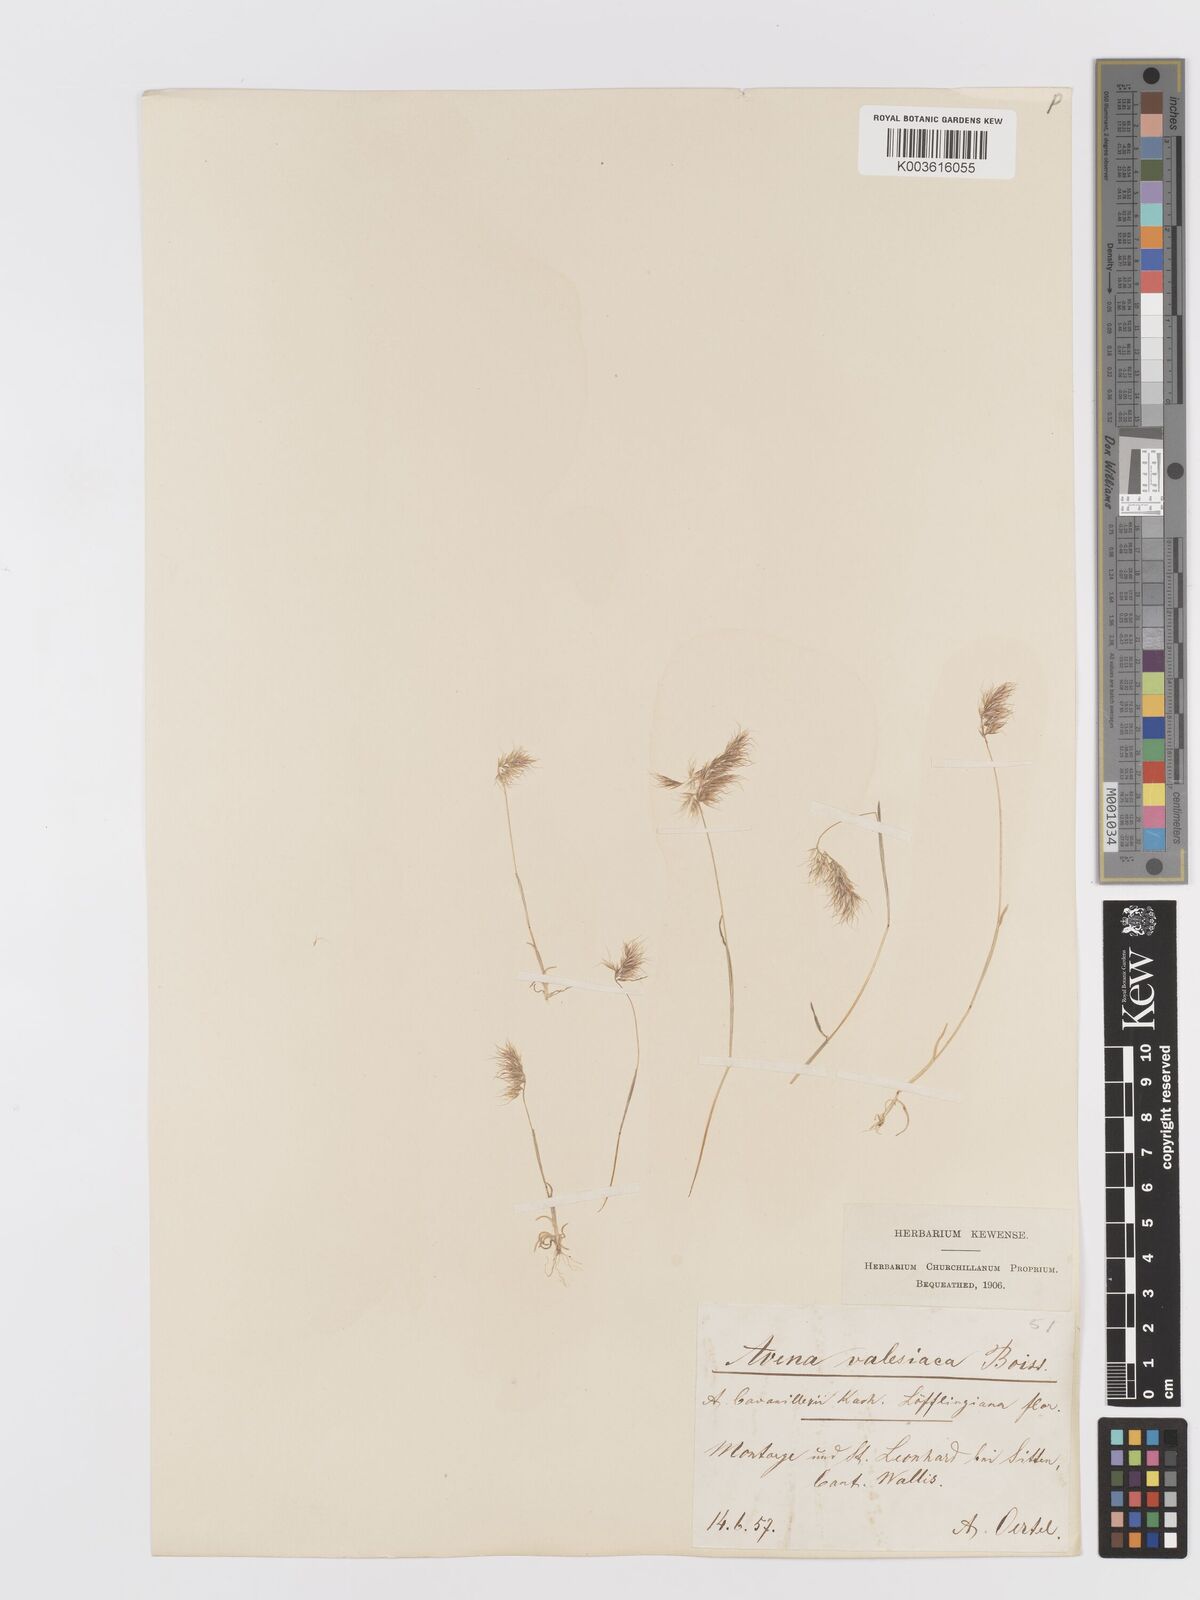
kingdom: Plantae
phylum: Tracheophyta
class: Liliopsida
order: Poales
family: Poaceae
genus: Trisetaria
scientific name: Trisetaria loeflingiana
